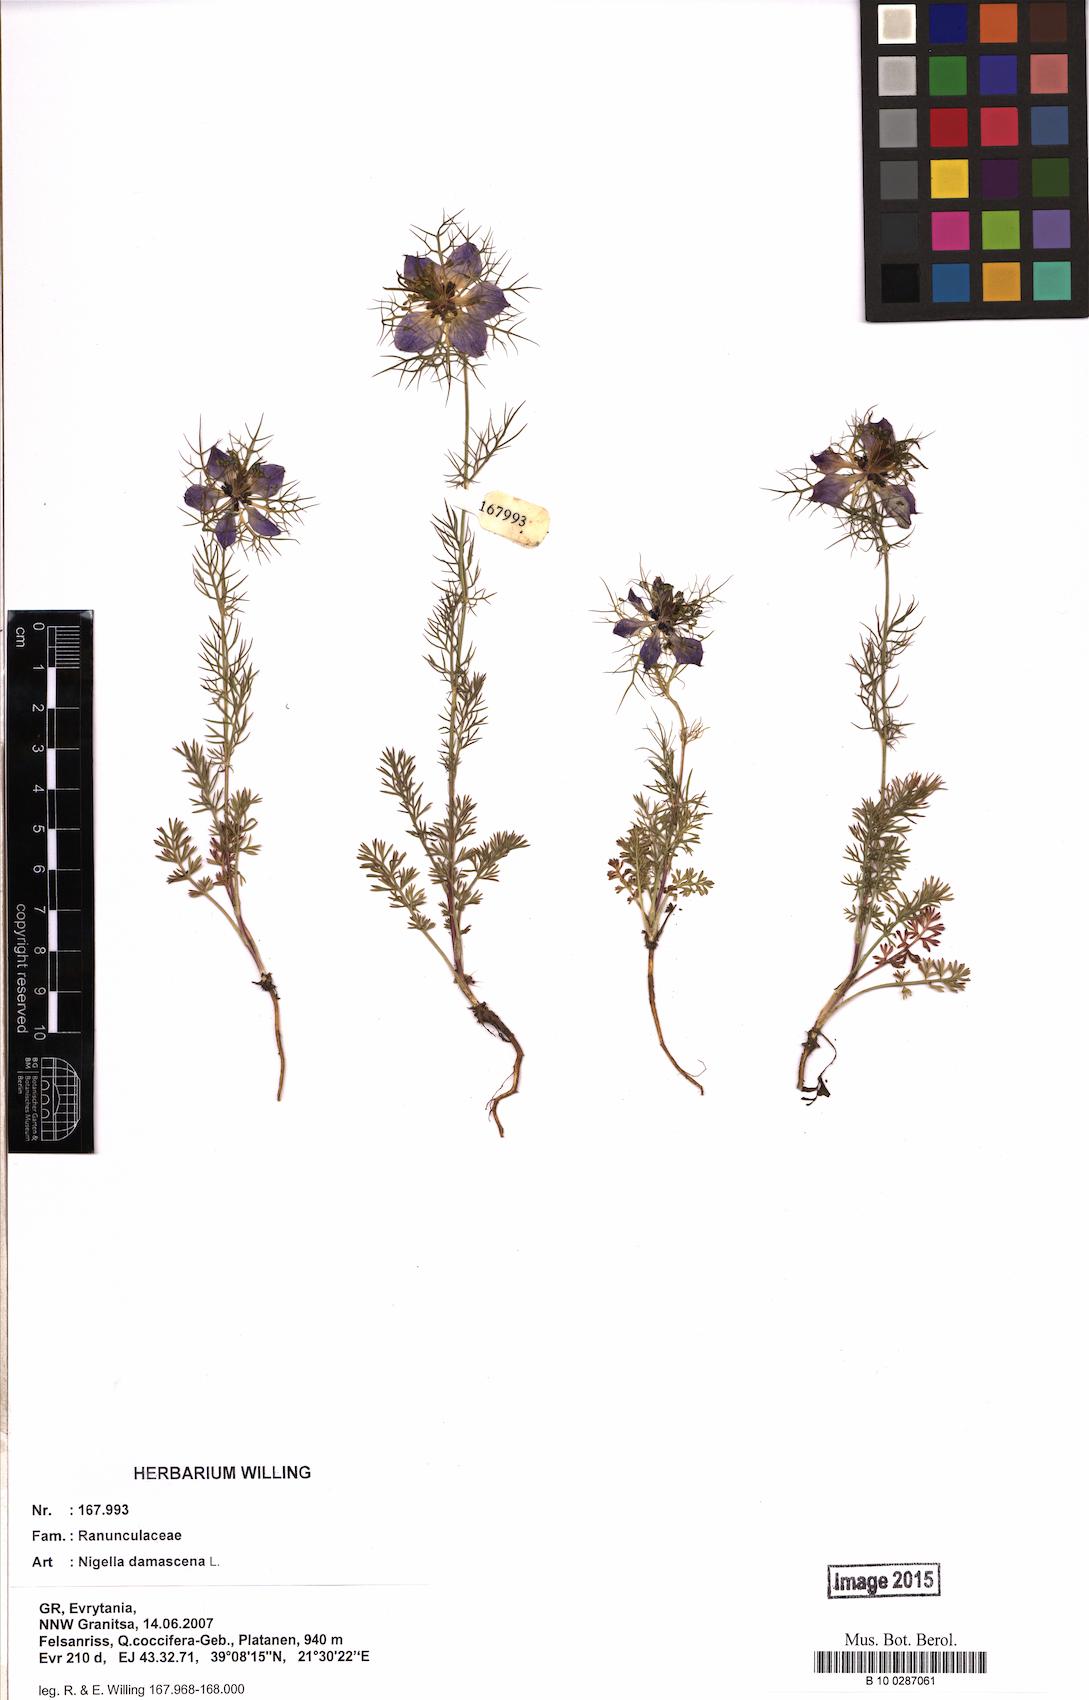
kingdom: Plantae
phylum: Tracheophyta
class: Magnoliopsida
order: Ranunculales
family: Ranunculaceae
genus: Nigella
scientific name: Nigella damascena
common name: Love-in-a-mist
